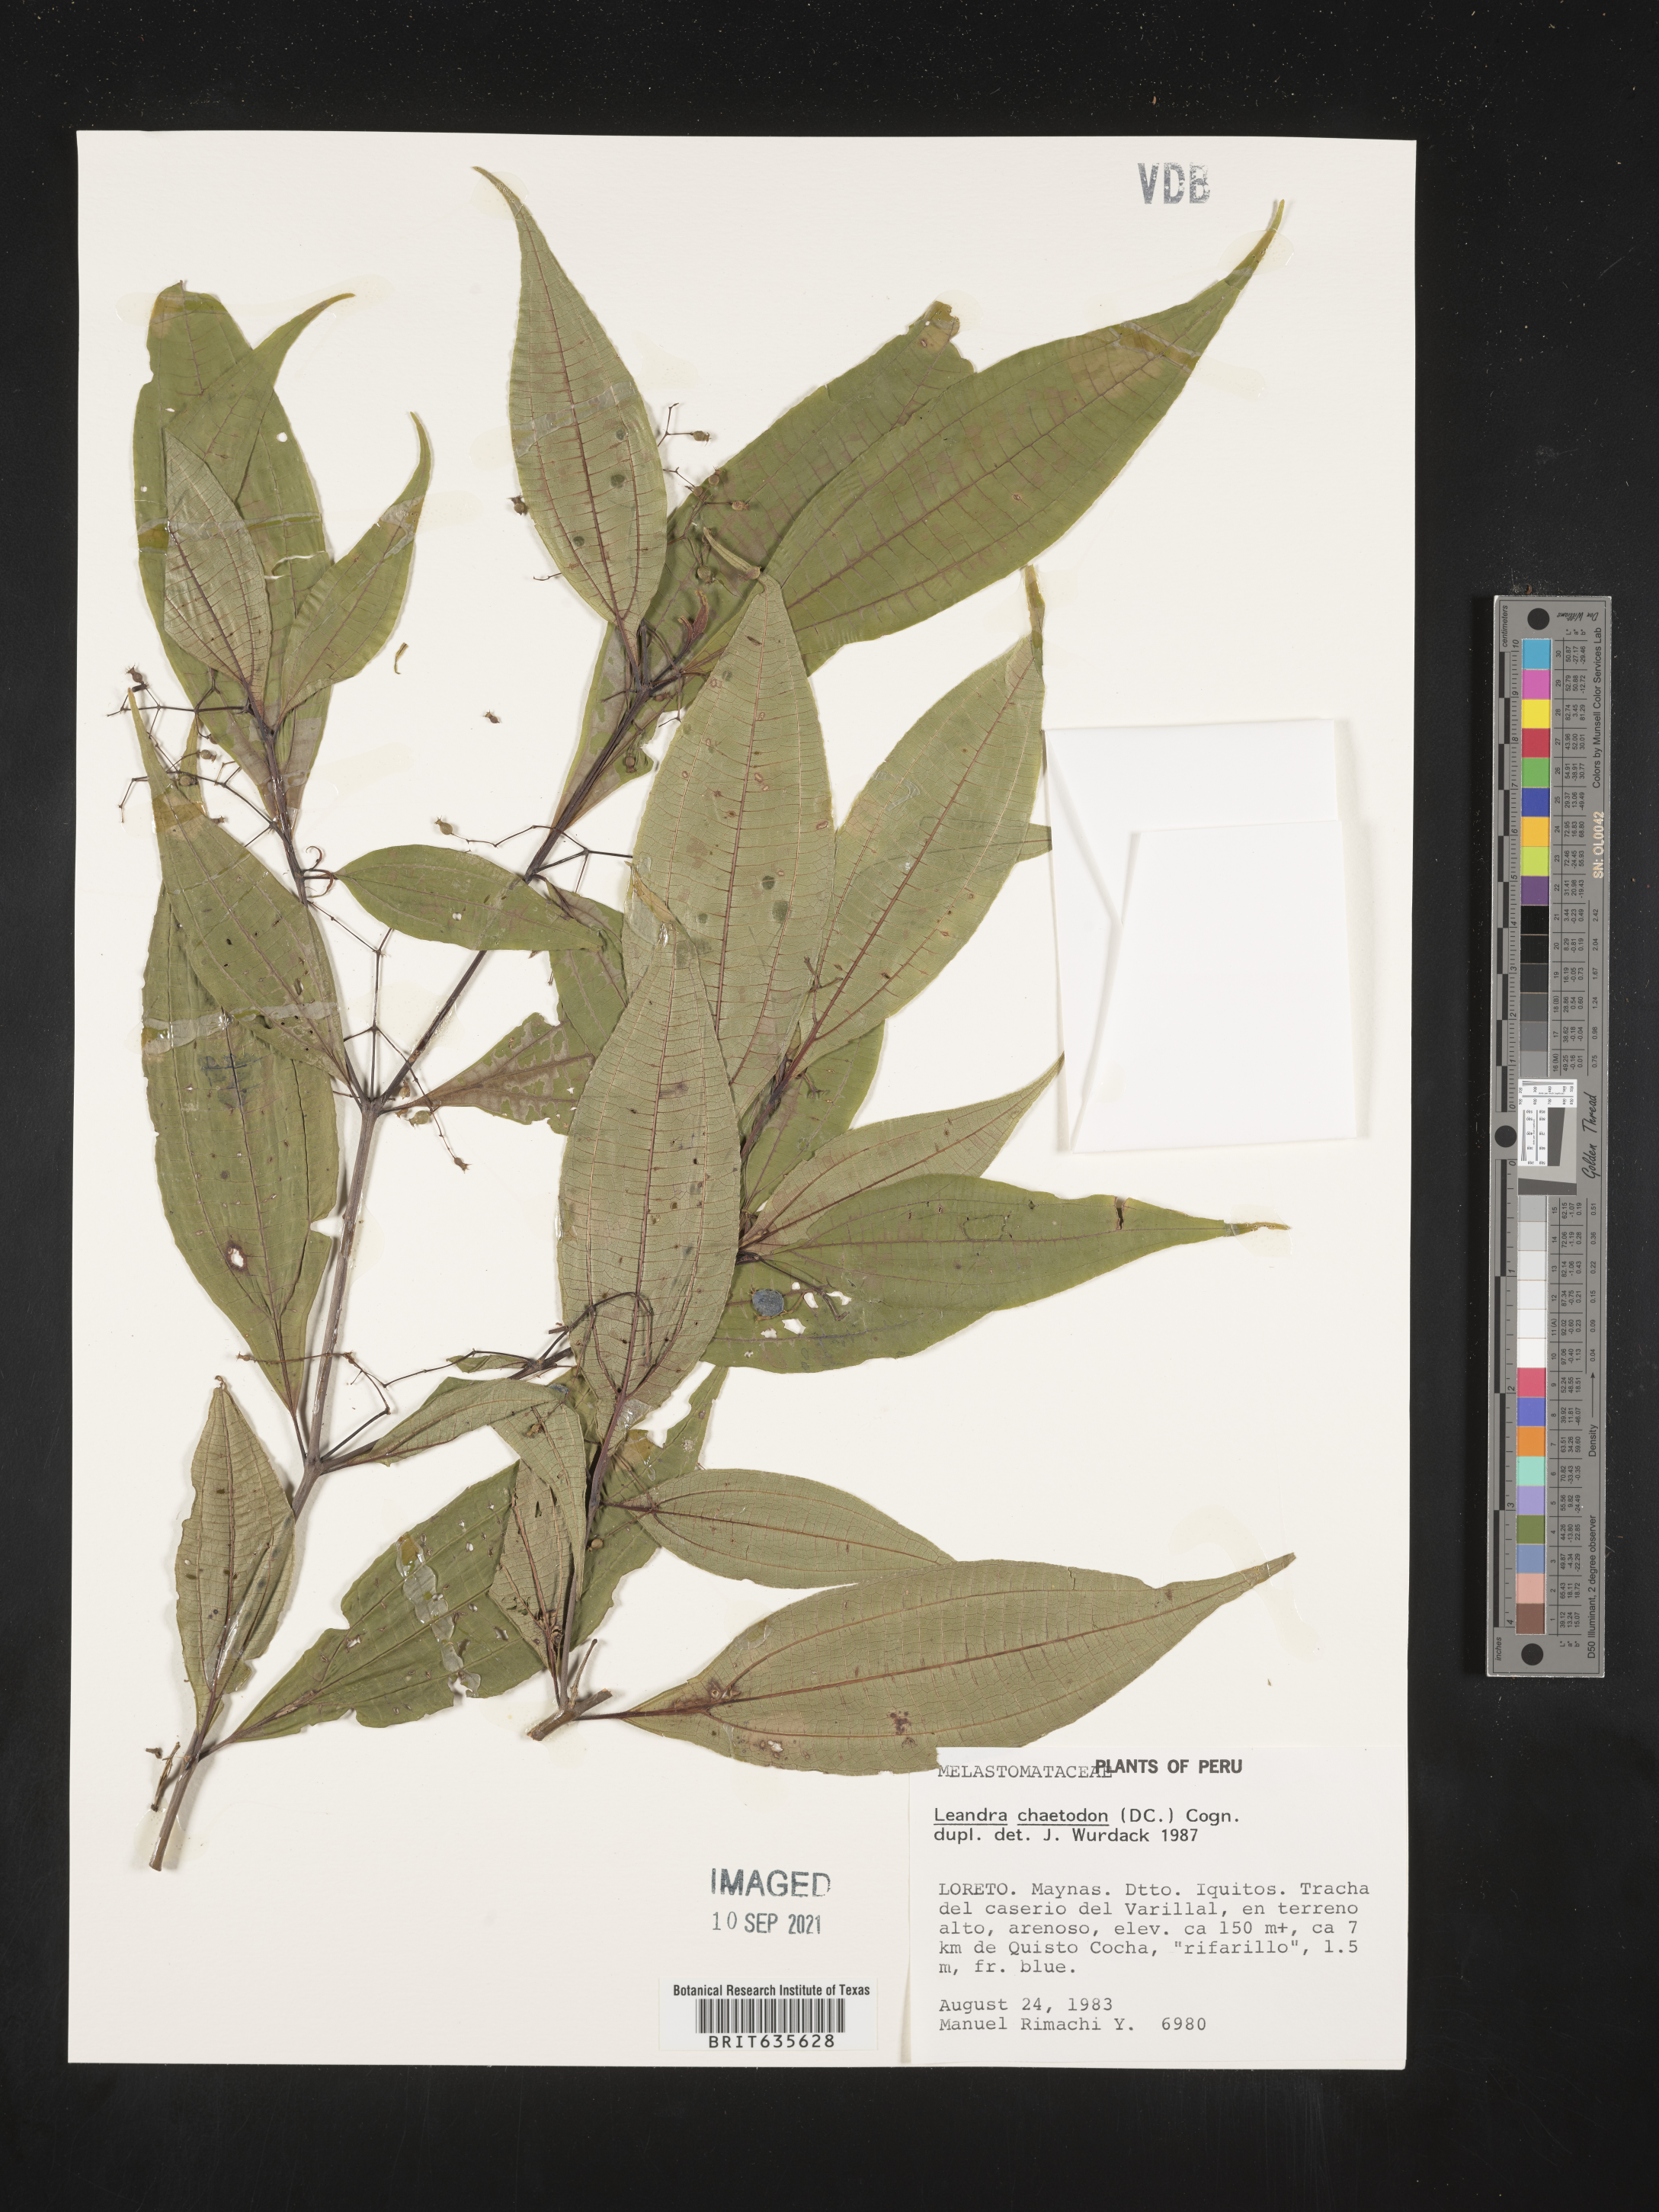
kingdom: Plantae
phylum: Tracheophyta
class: Magnoliopsida
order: Myrtales
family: Melastomataceae
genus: Miconia
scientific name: Miconia
